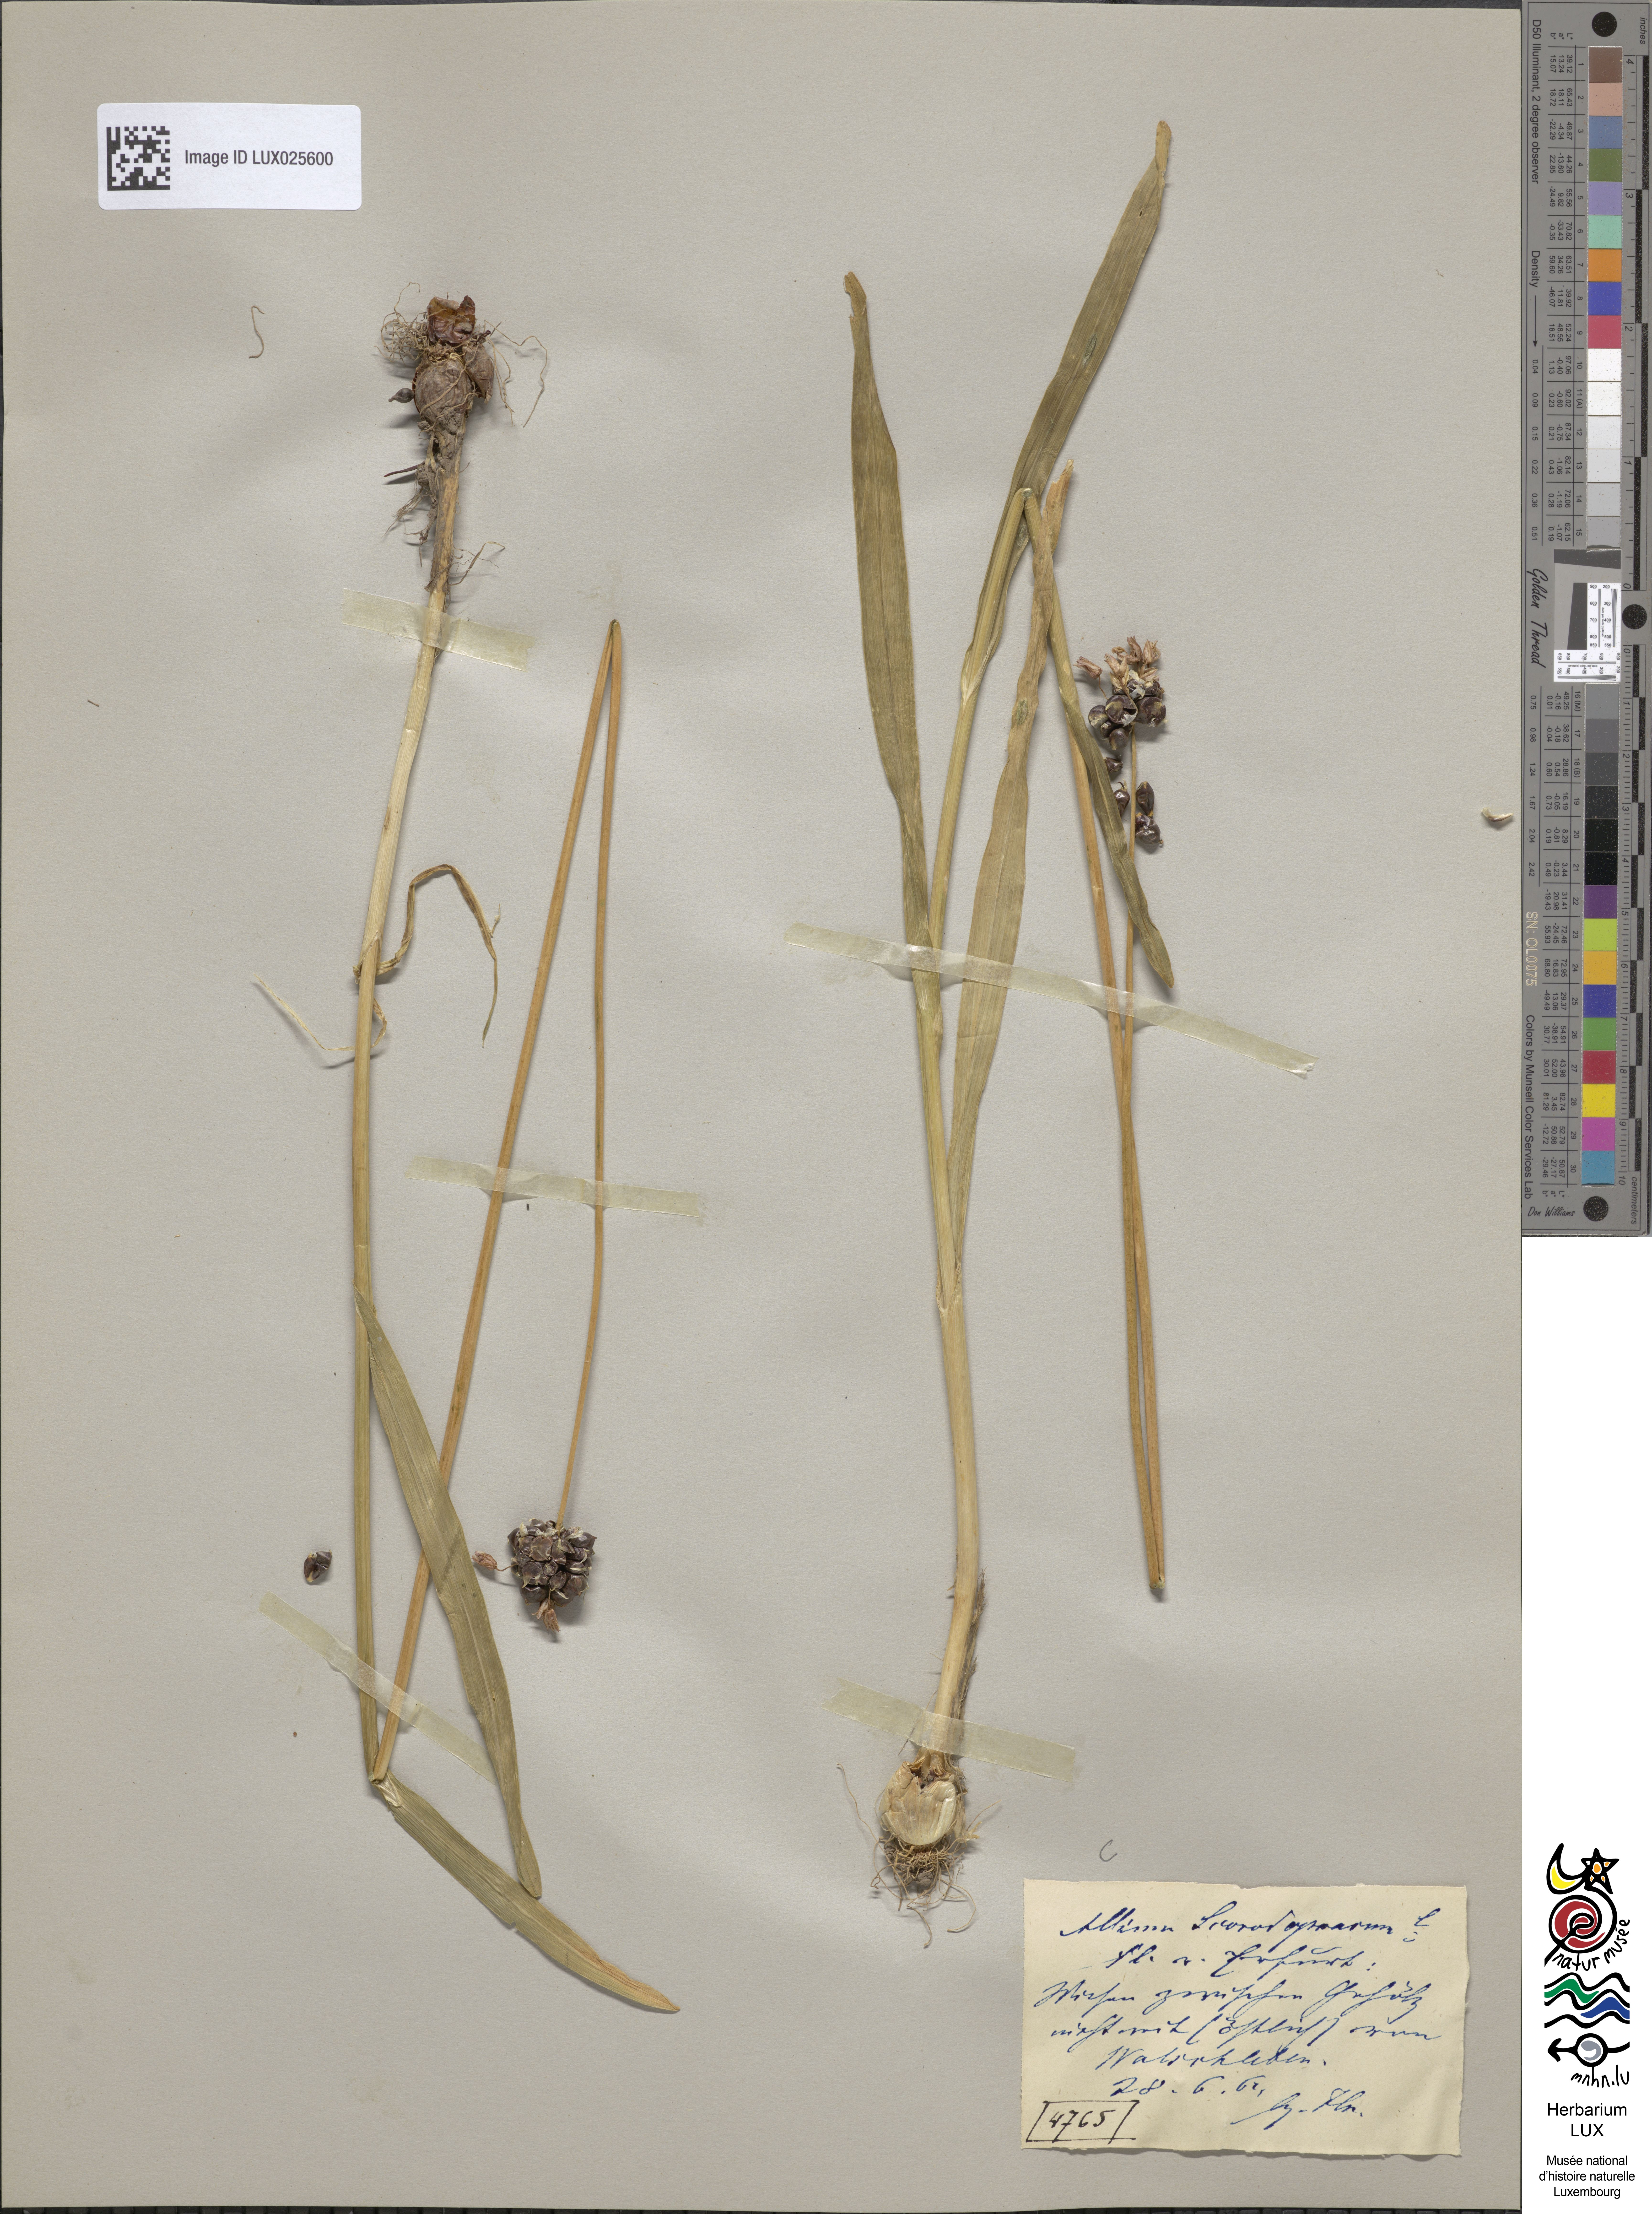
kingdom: Plantae
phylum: Tracheophyta
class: Liliopsida
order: Asparagales
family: Amaryllidaceae
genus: Allium
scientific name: Allium scorodoprasum
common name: Sand leek
